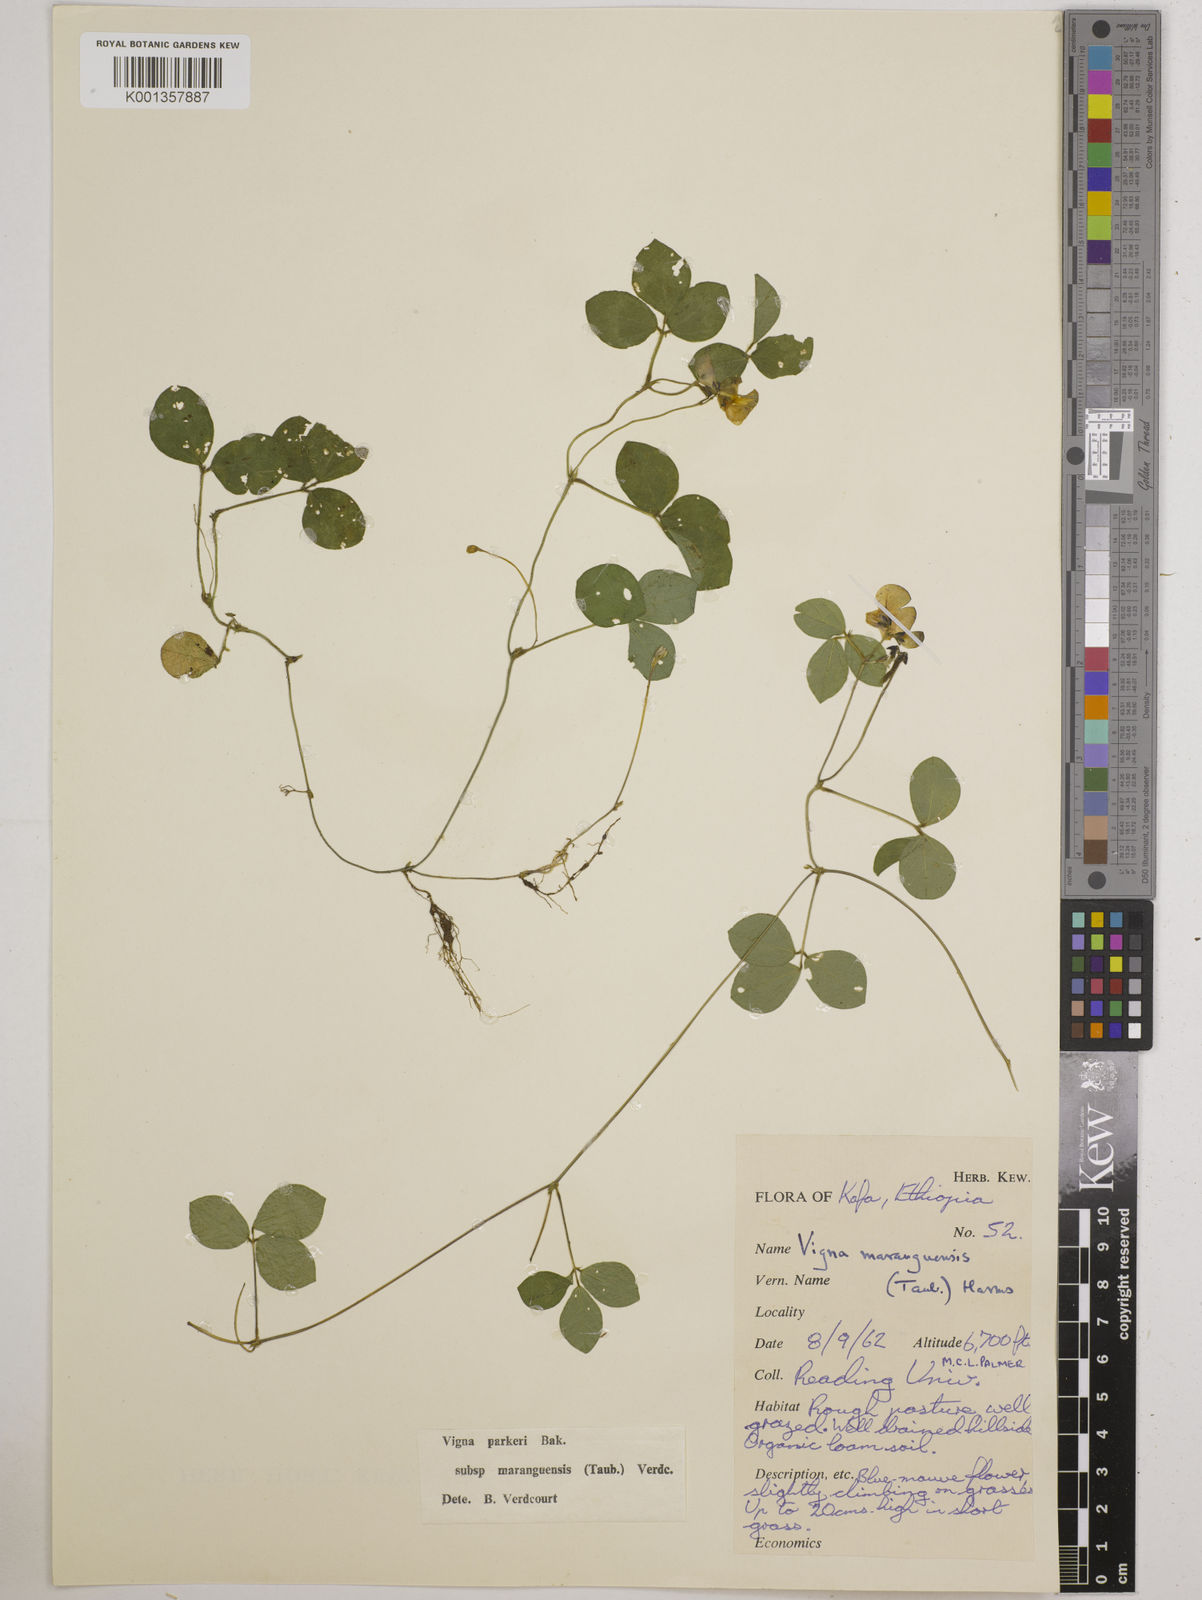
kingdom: Plantae
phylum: Tracheophyta
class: Magnoliopsida
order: Fabales
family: Fabaceae
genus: Vigna
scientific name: Vigna
